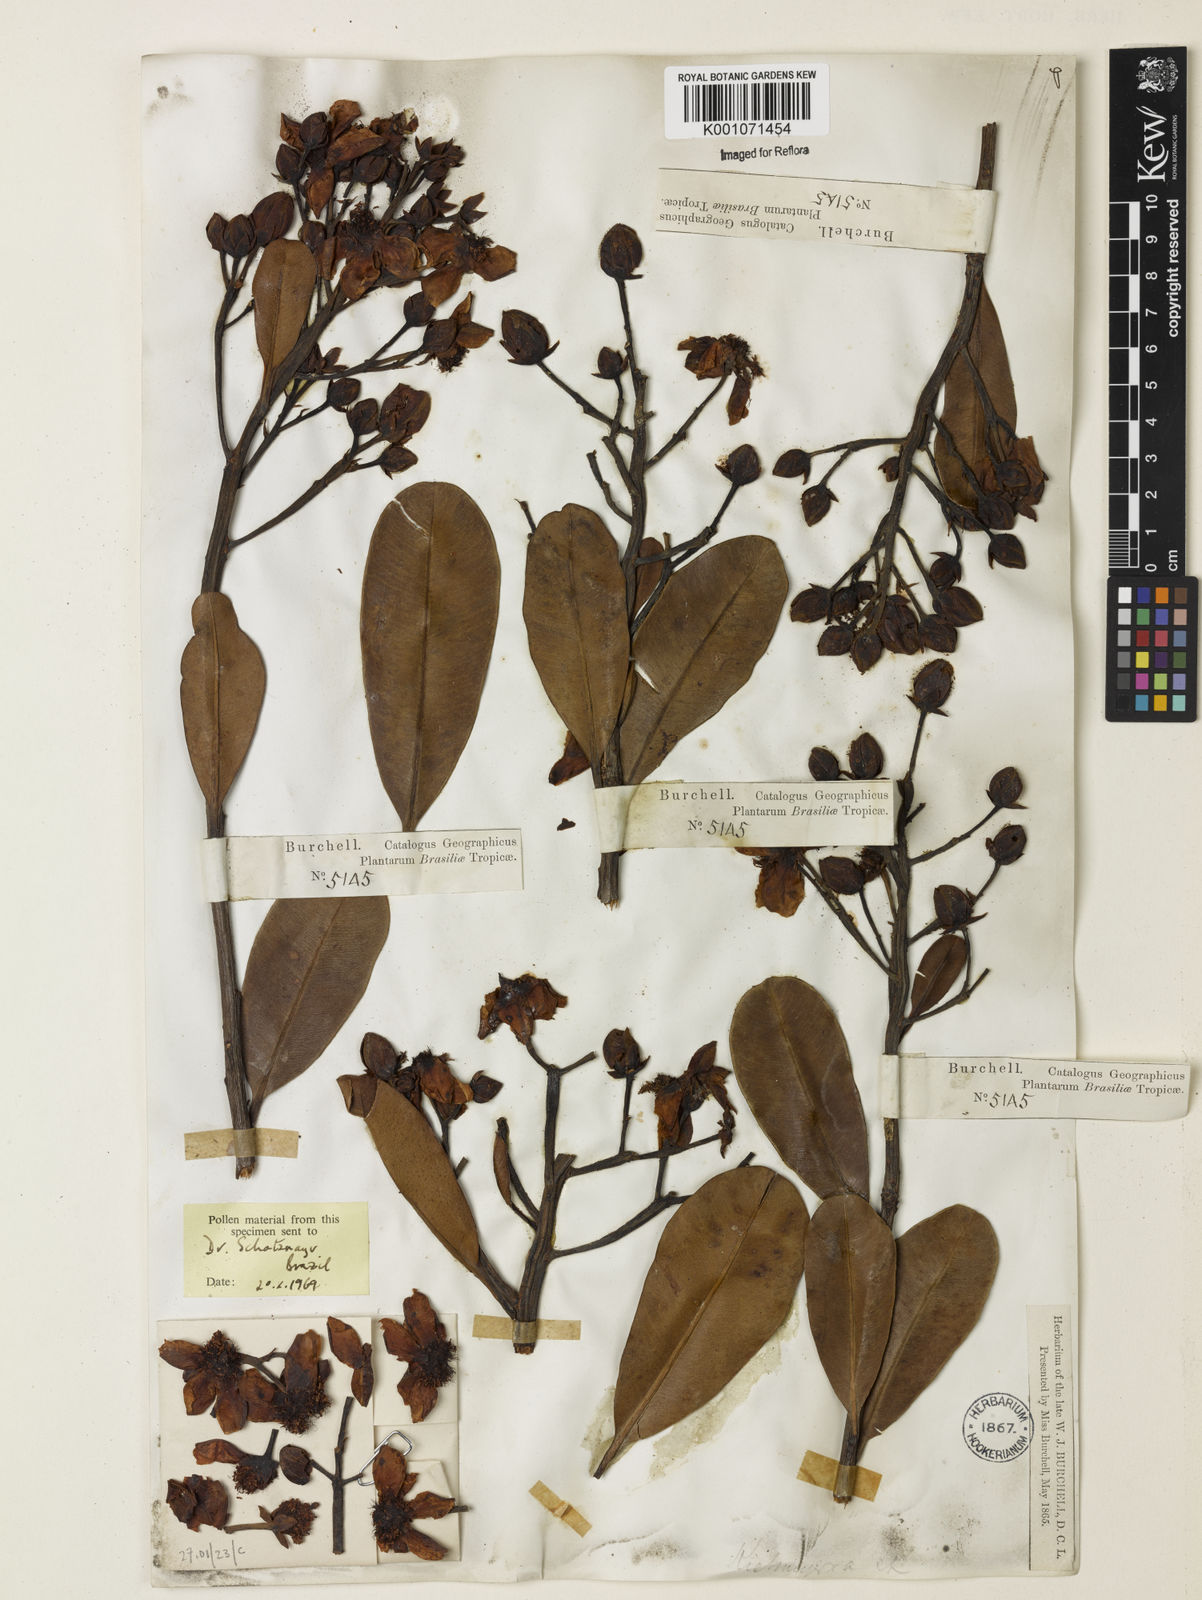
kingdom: Plantae
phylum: Tracheophyta
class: Magnoliopsida
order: Malpighiales
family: Calophyllaceae
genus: Kielmeyera
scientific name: Kielmeyera corymbosa
